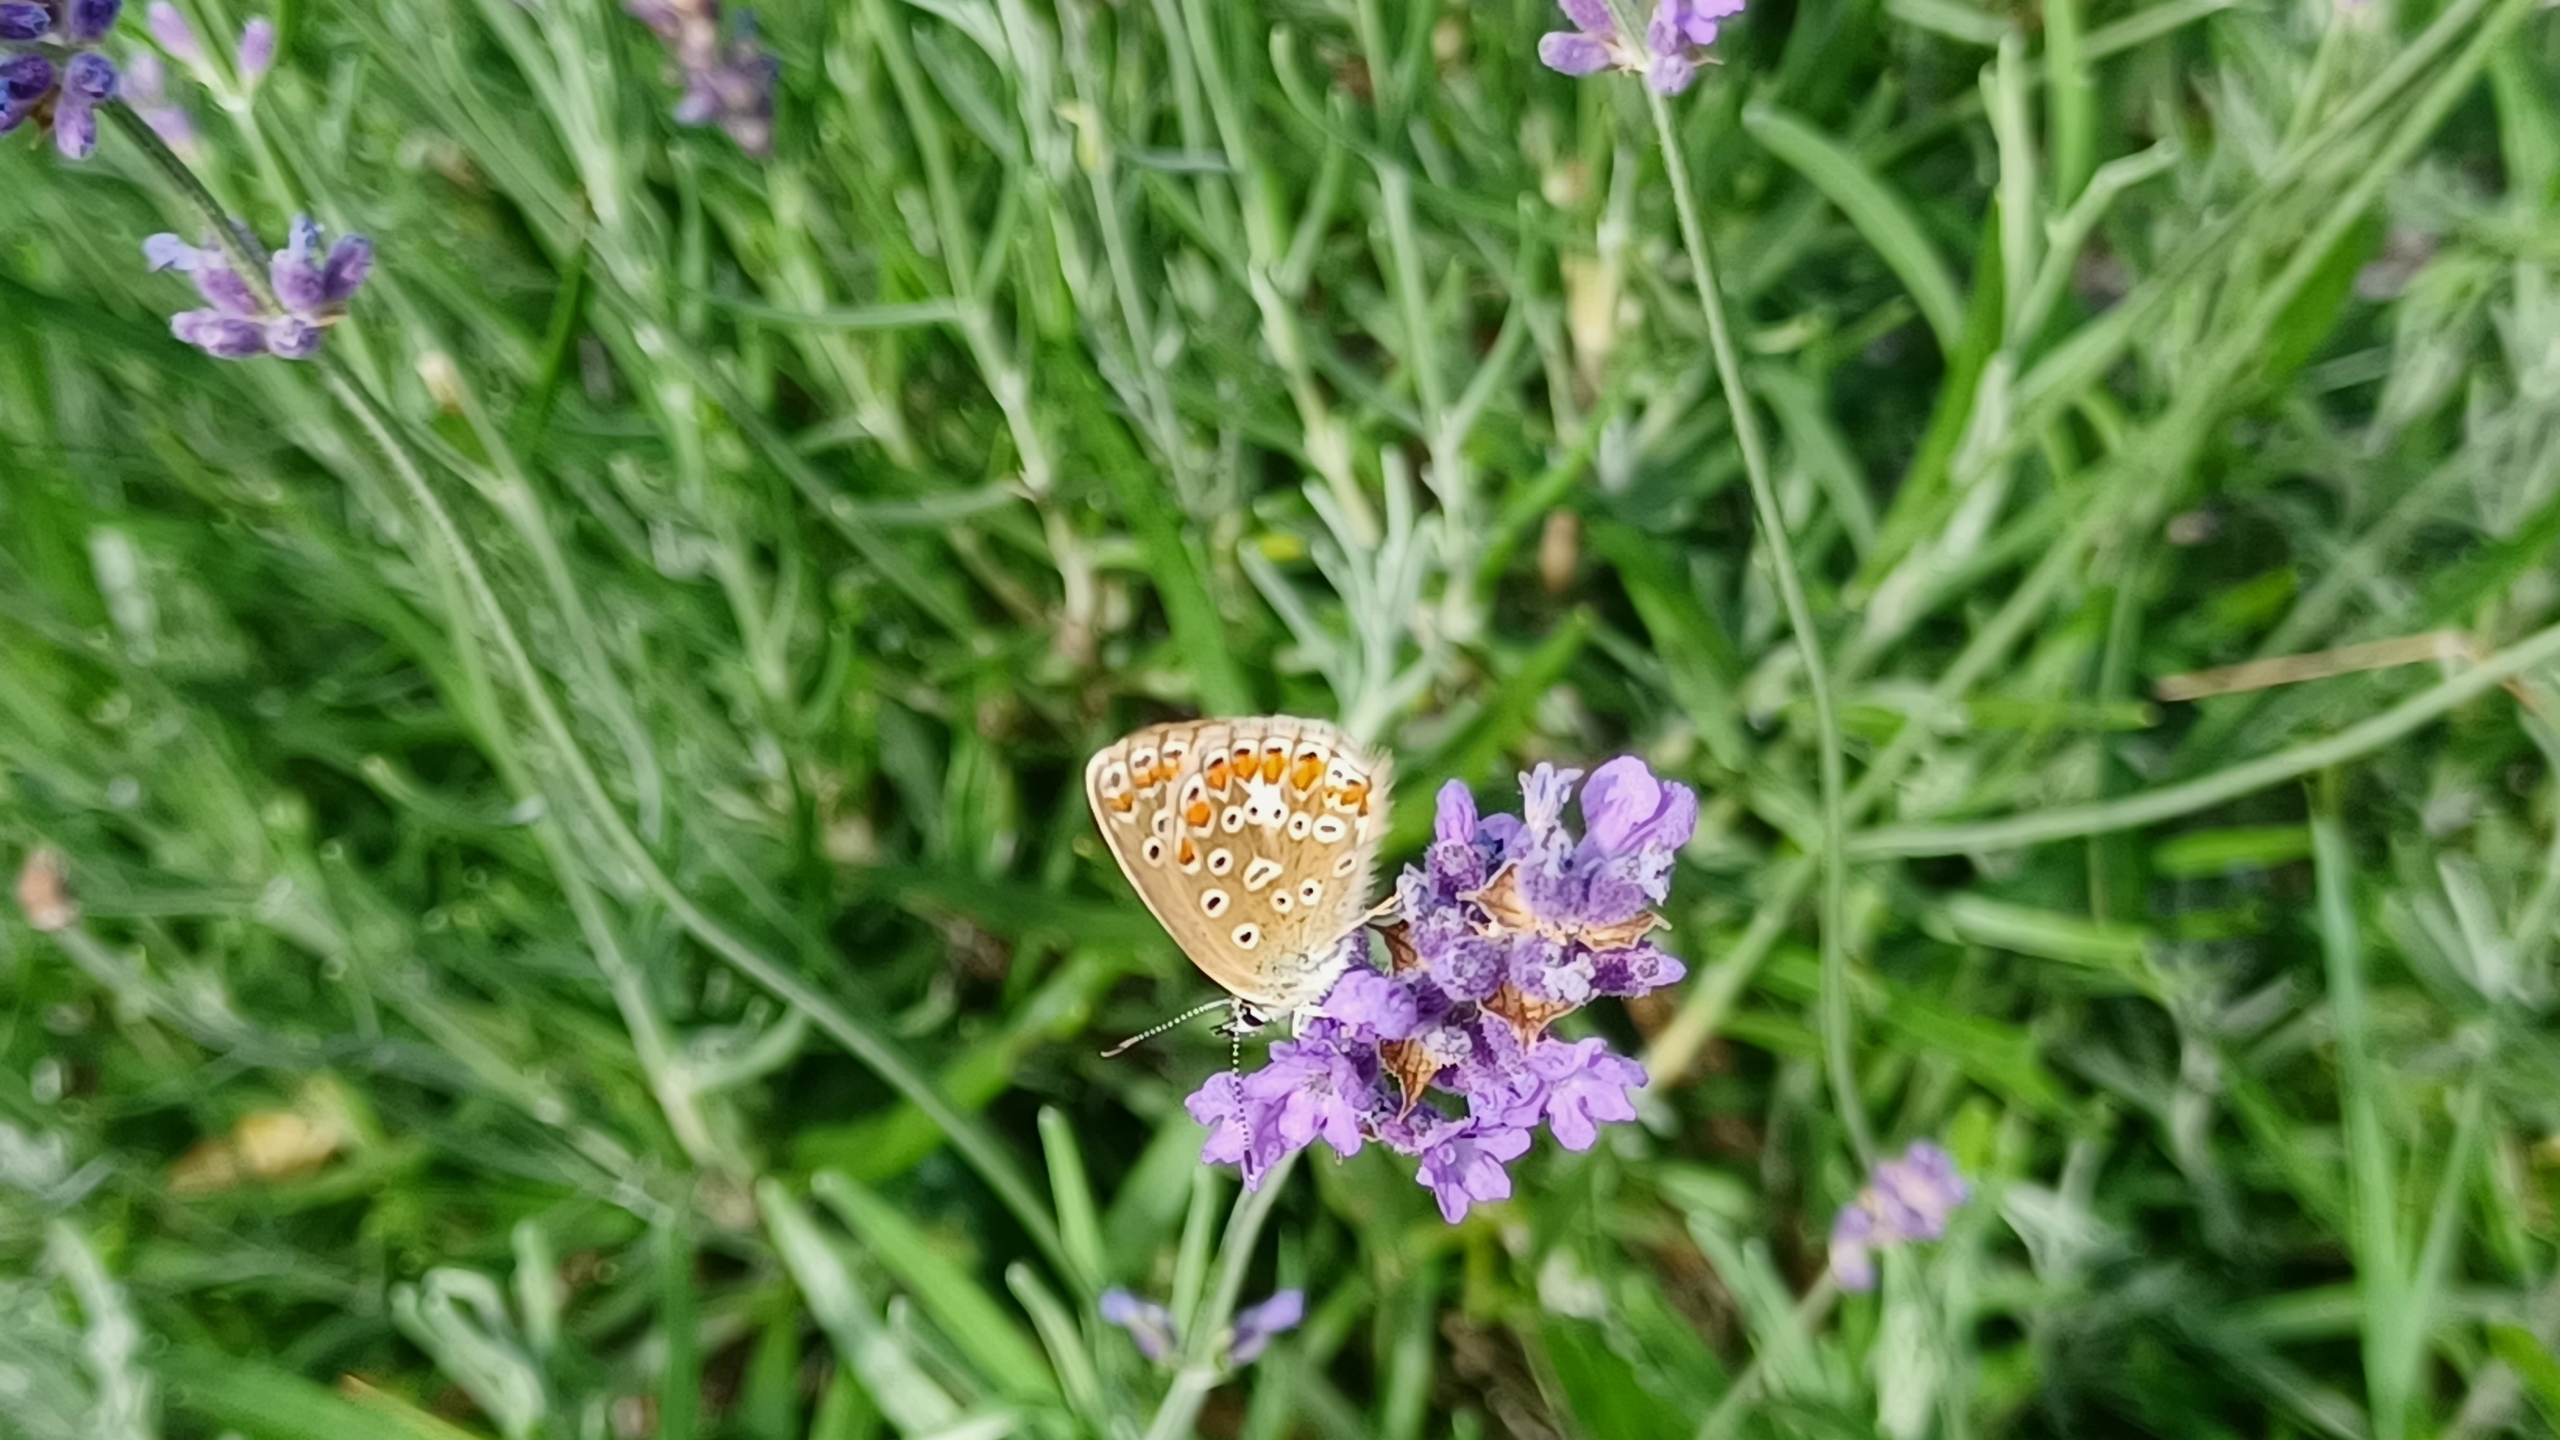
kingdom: Animalia
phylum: Arthropoda
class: Insecta
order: Lepidoptera
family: Lycaenidae
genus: Polyommatus
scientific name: Polyommatus icarus
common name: Almindelig blåfugl
